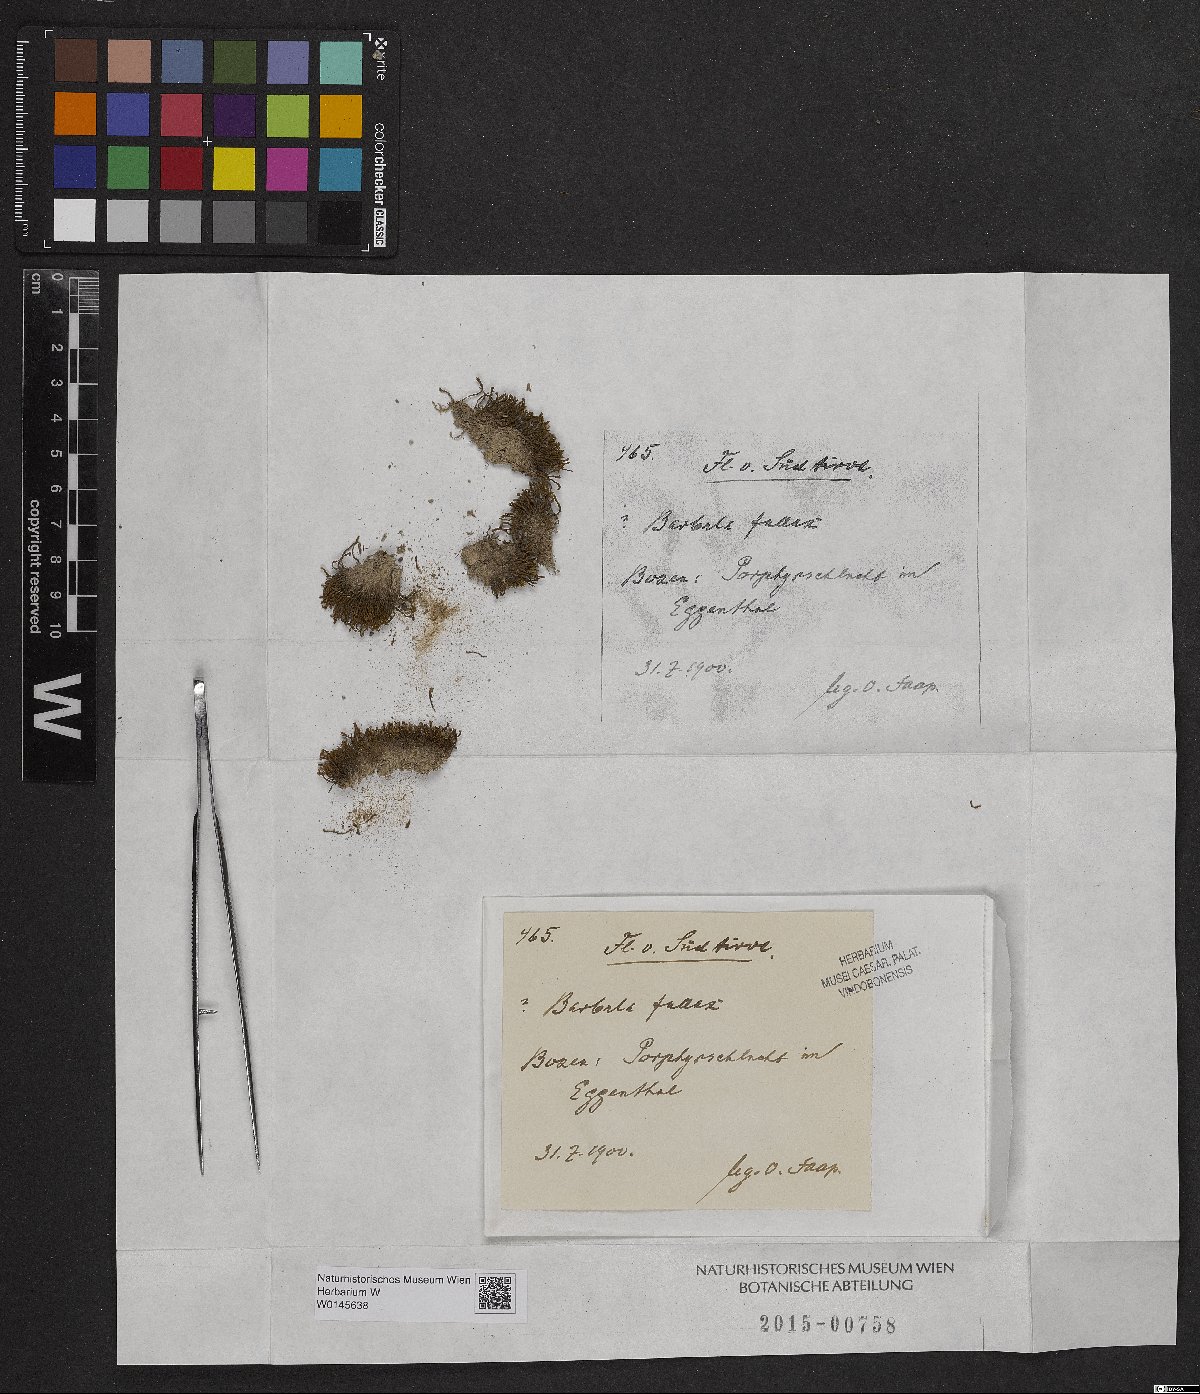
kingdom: Plantae
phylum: Bryophyta
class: Bryopsida
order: Pottiales
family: Pottiaceae
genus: Geheebia
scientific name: Geheebia fallax
